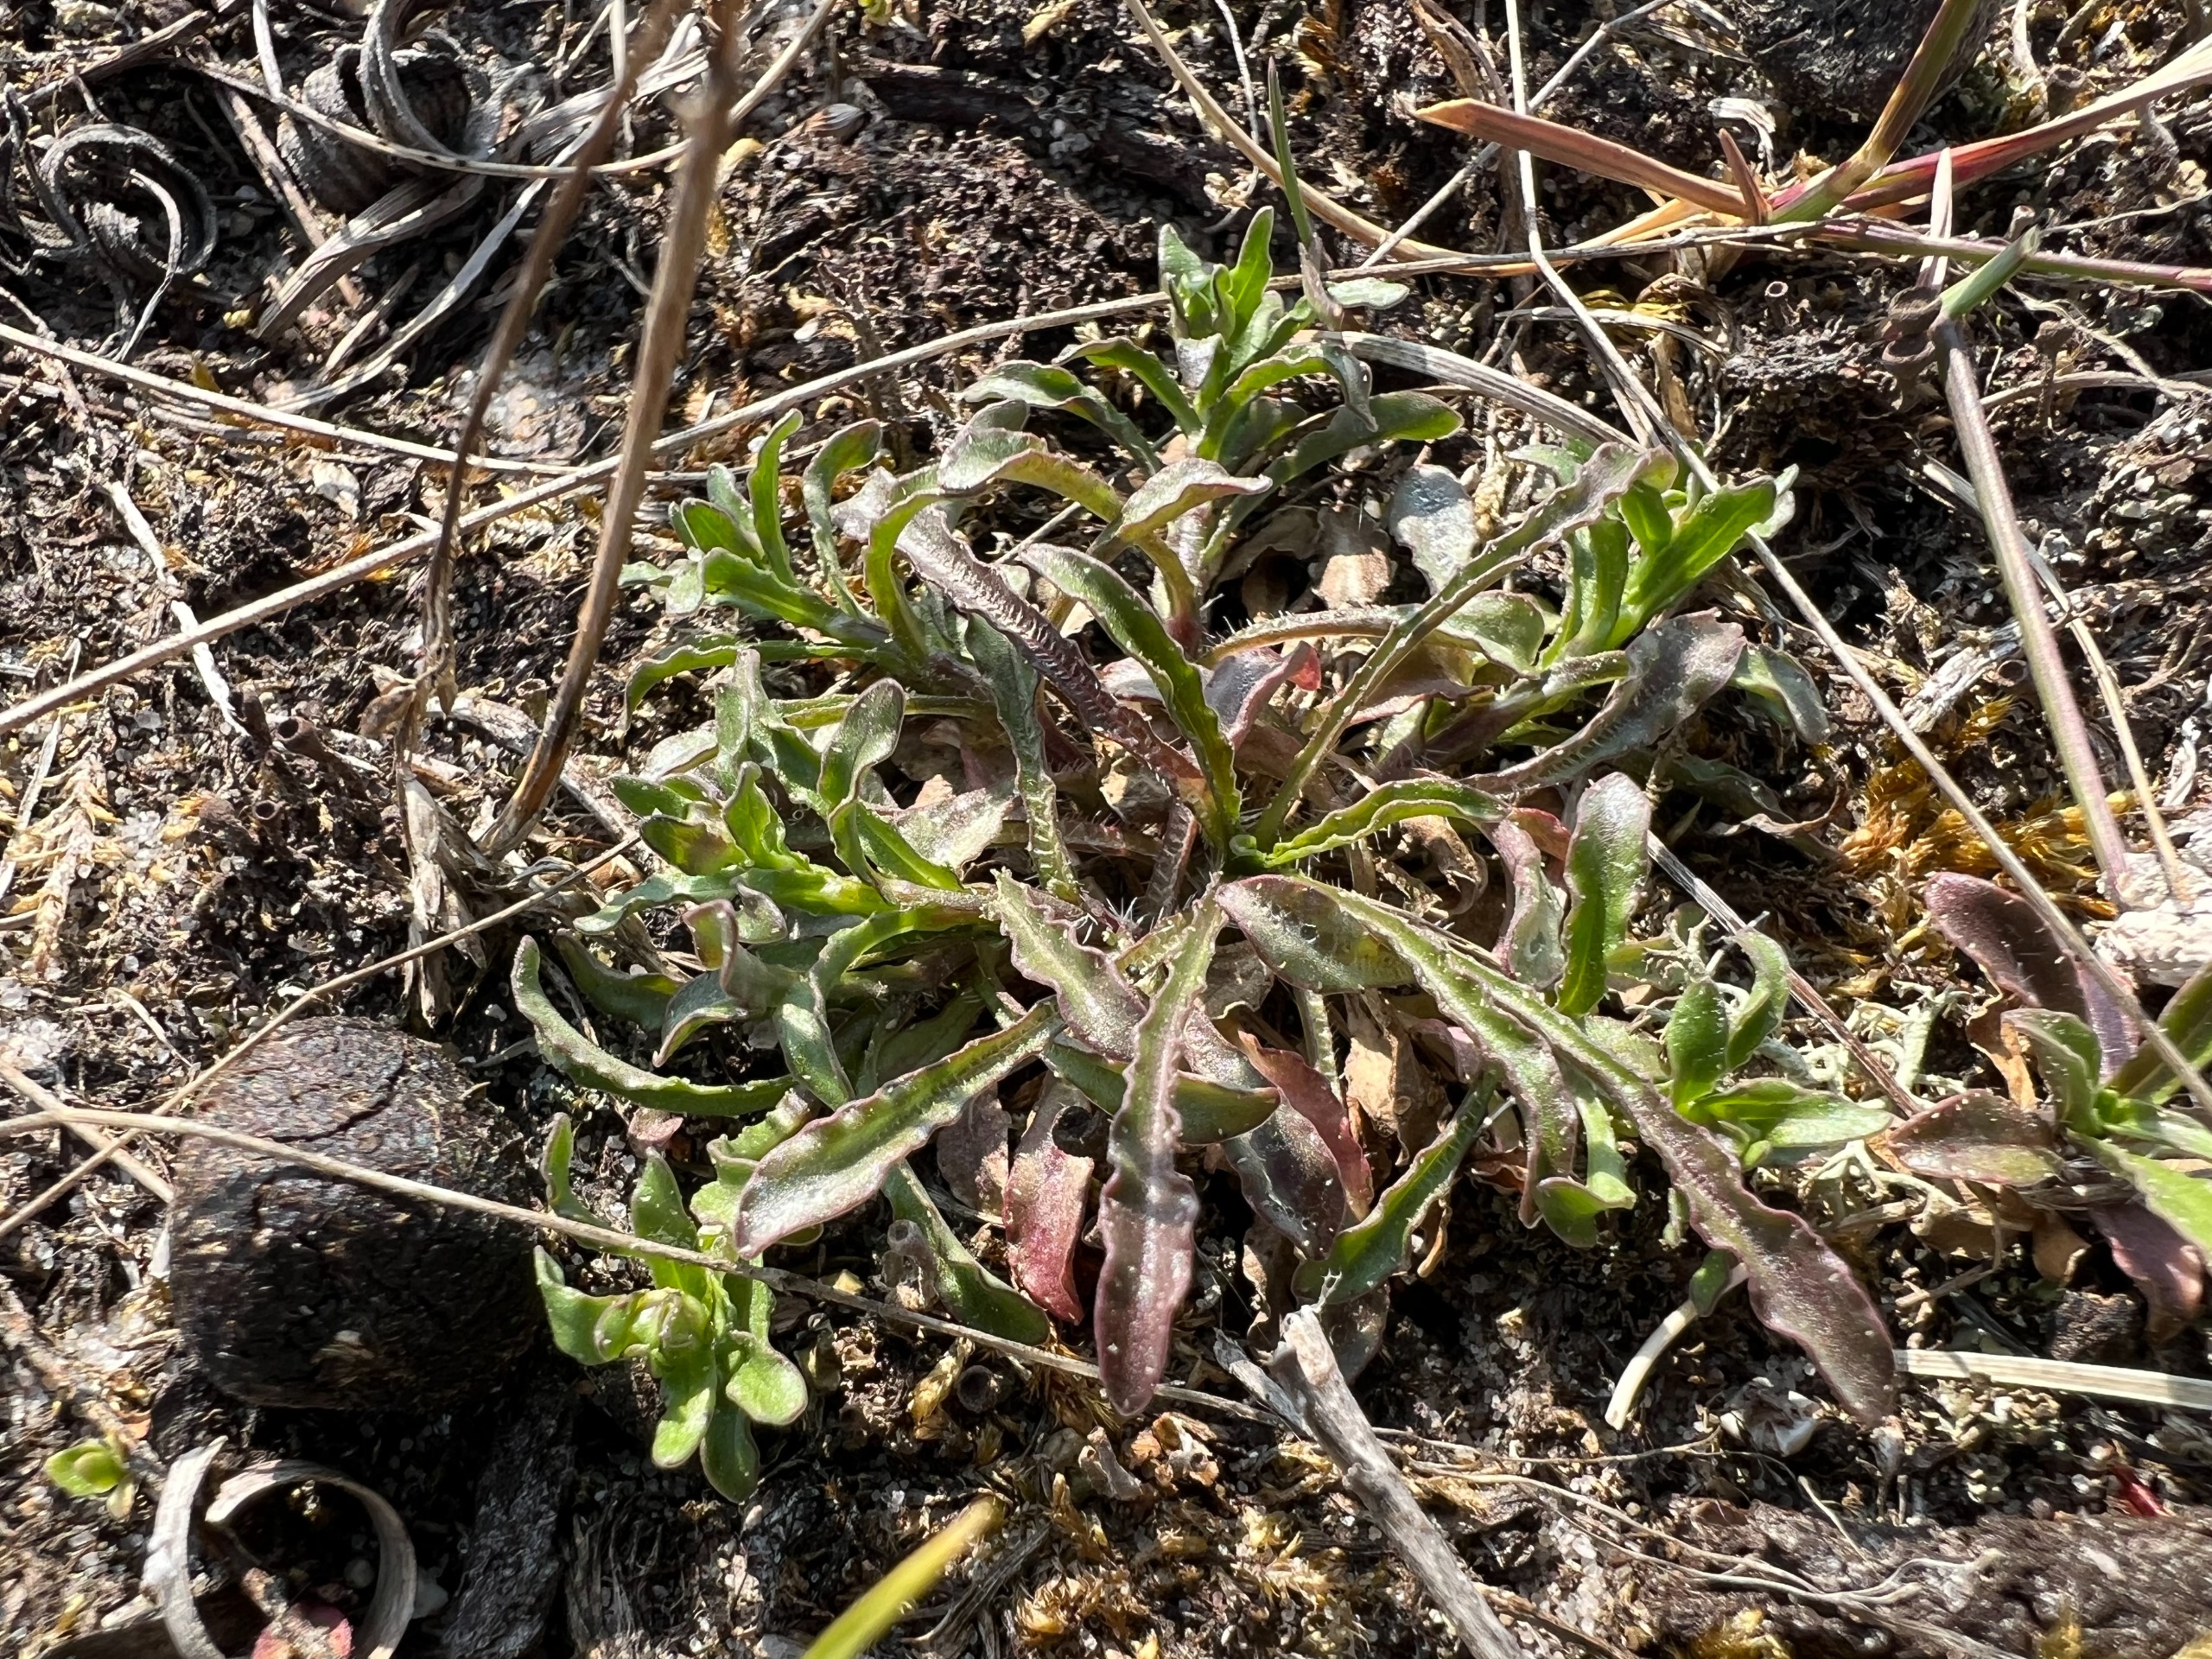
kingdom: Plantae
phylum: Tracheophyta
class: Magnoliopsida
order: Asterales
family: Campanulaceae
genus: Jasione
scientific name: Jasione montana
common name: Blåmunke
